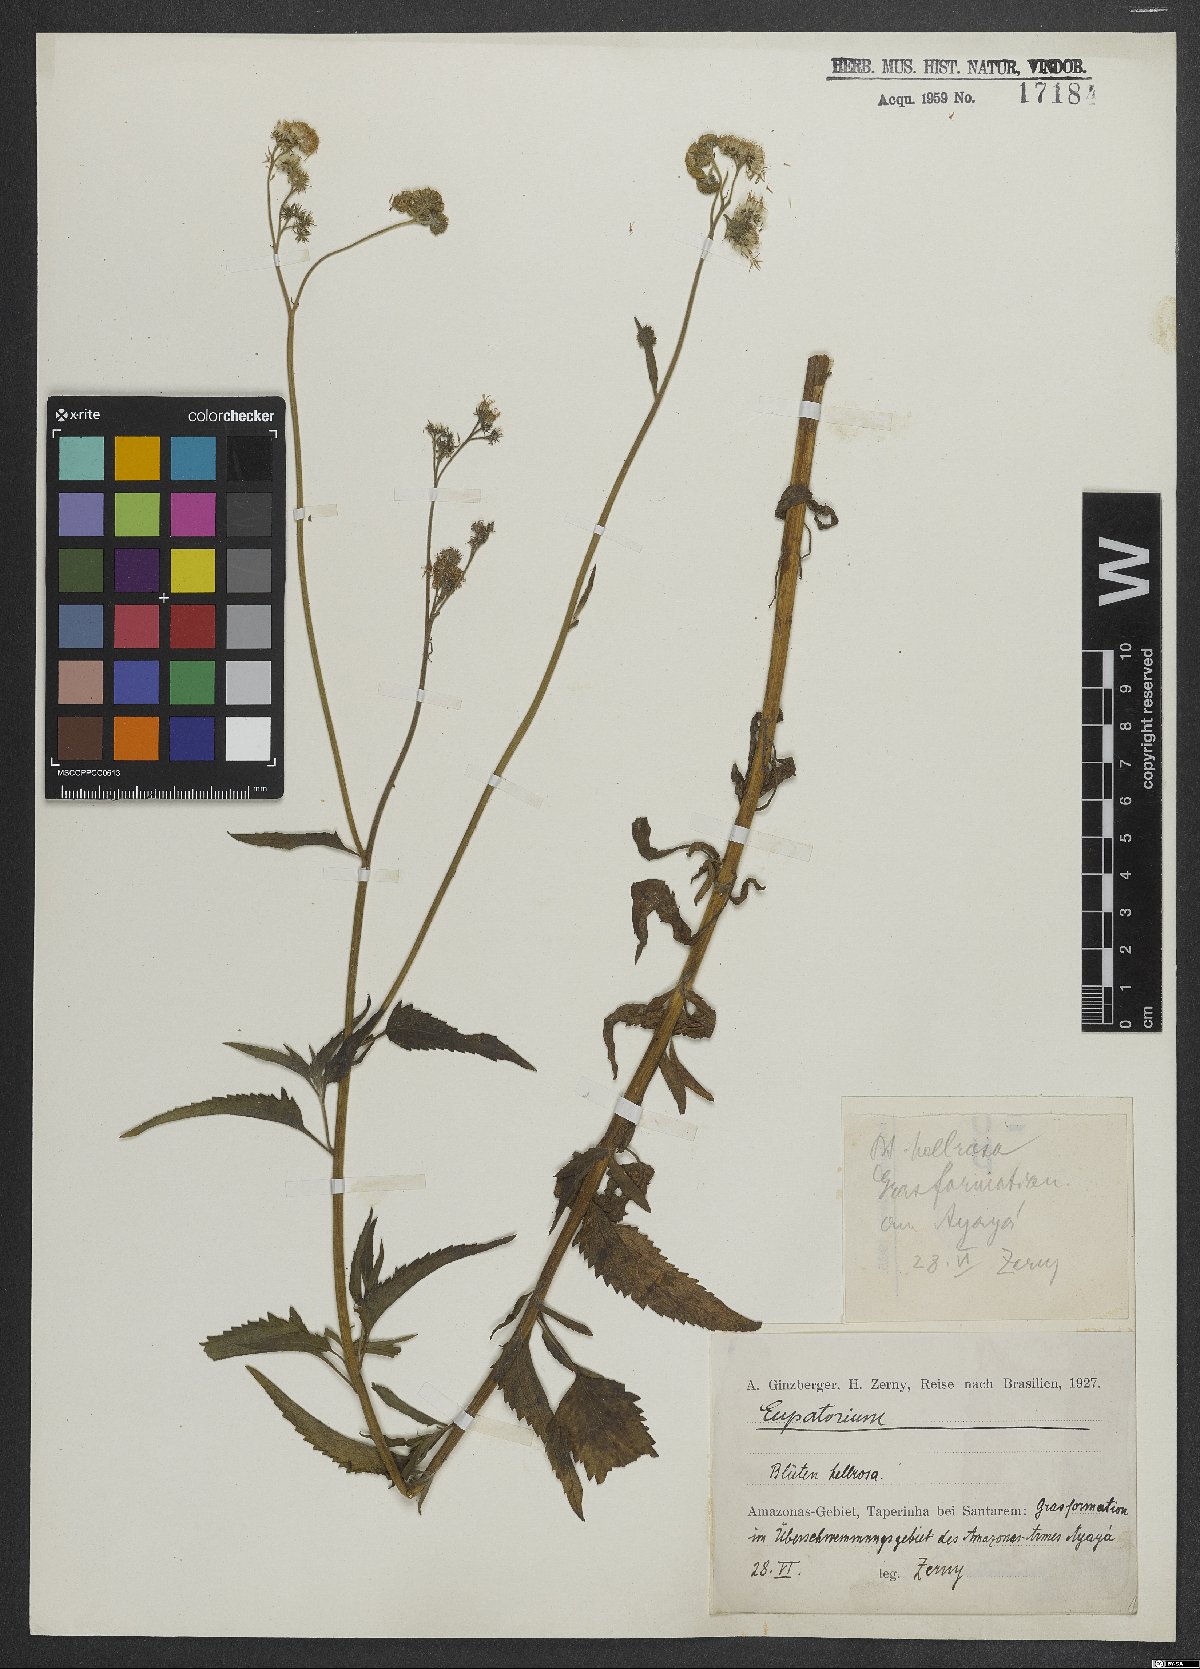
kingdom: Plantae
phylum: Tracheophyta
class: Magnoliopsida
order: Asterales
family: Asteraceae
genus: Eupatorium
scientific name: Eupatorium
